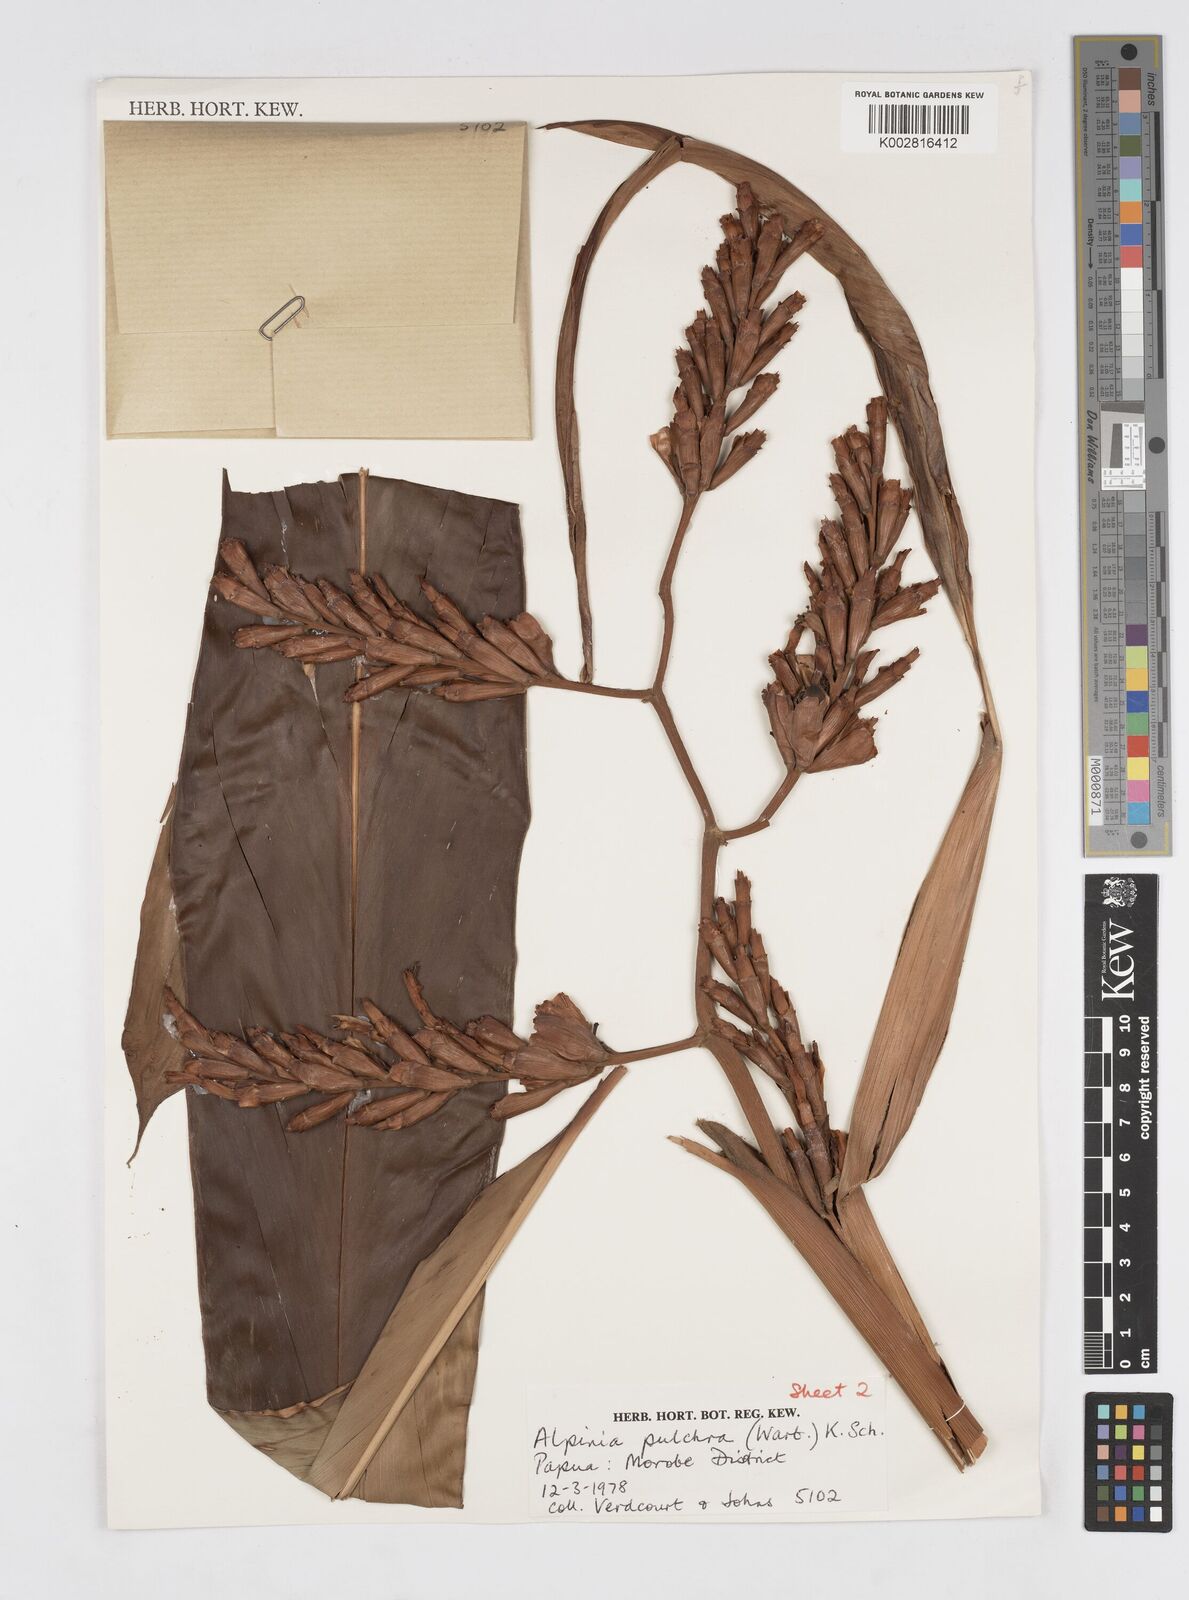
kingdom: Plantae
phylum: Tracheophyta
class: Liliopsida
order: Zingiberales
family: Zingiberaceae
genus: Alpinia
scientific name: Alpinia stenobracteolata
